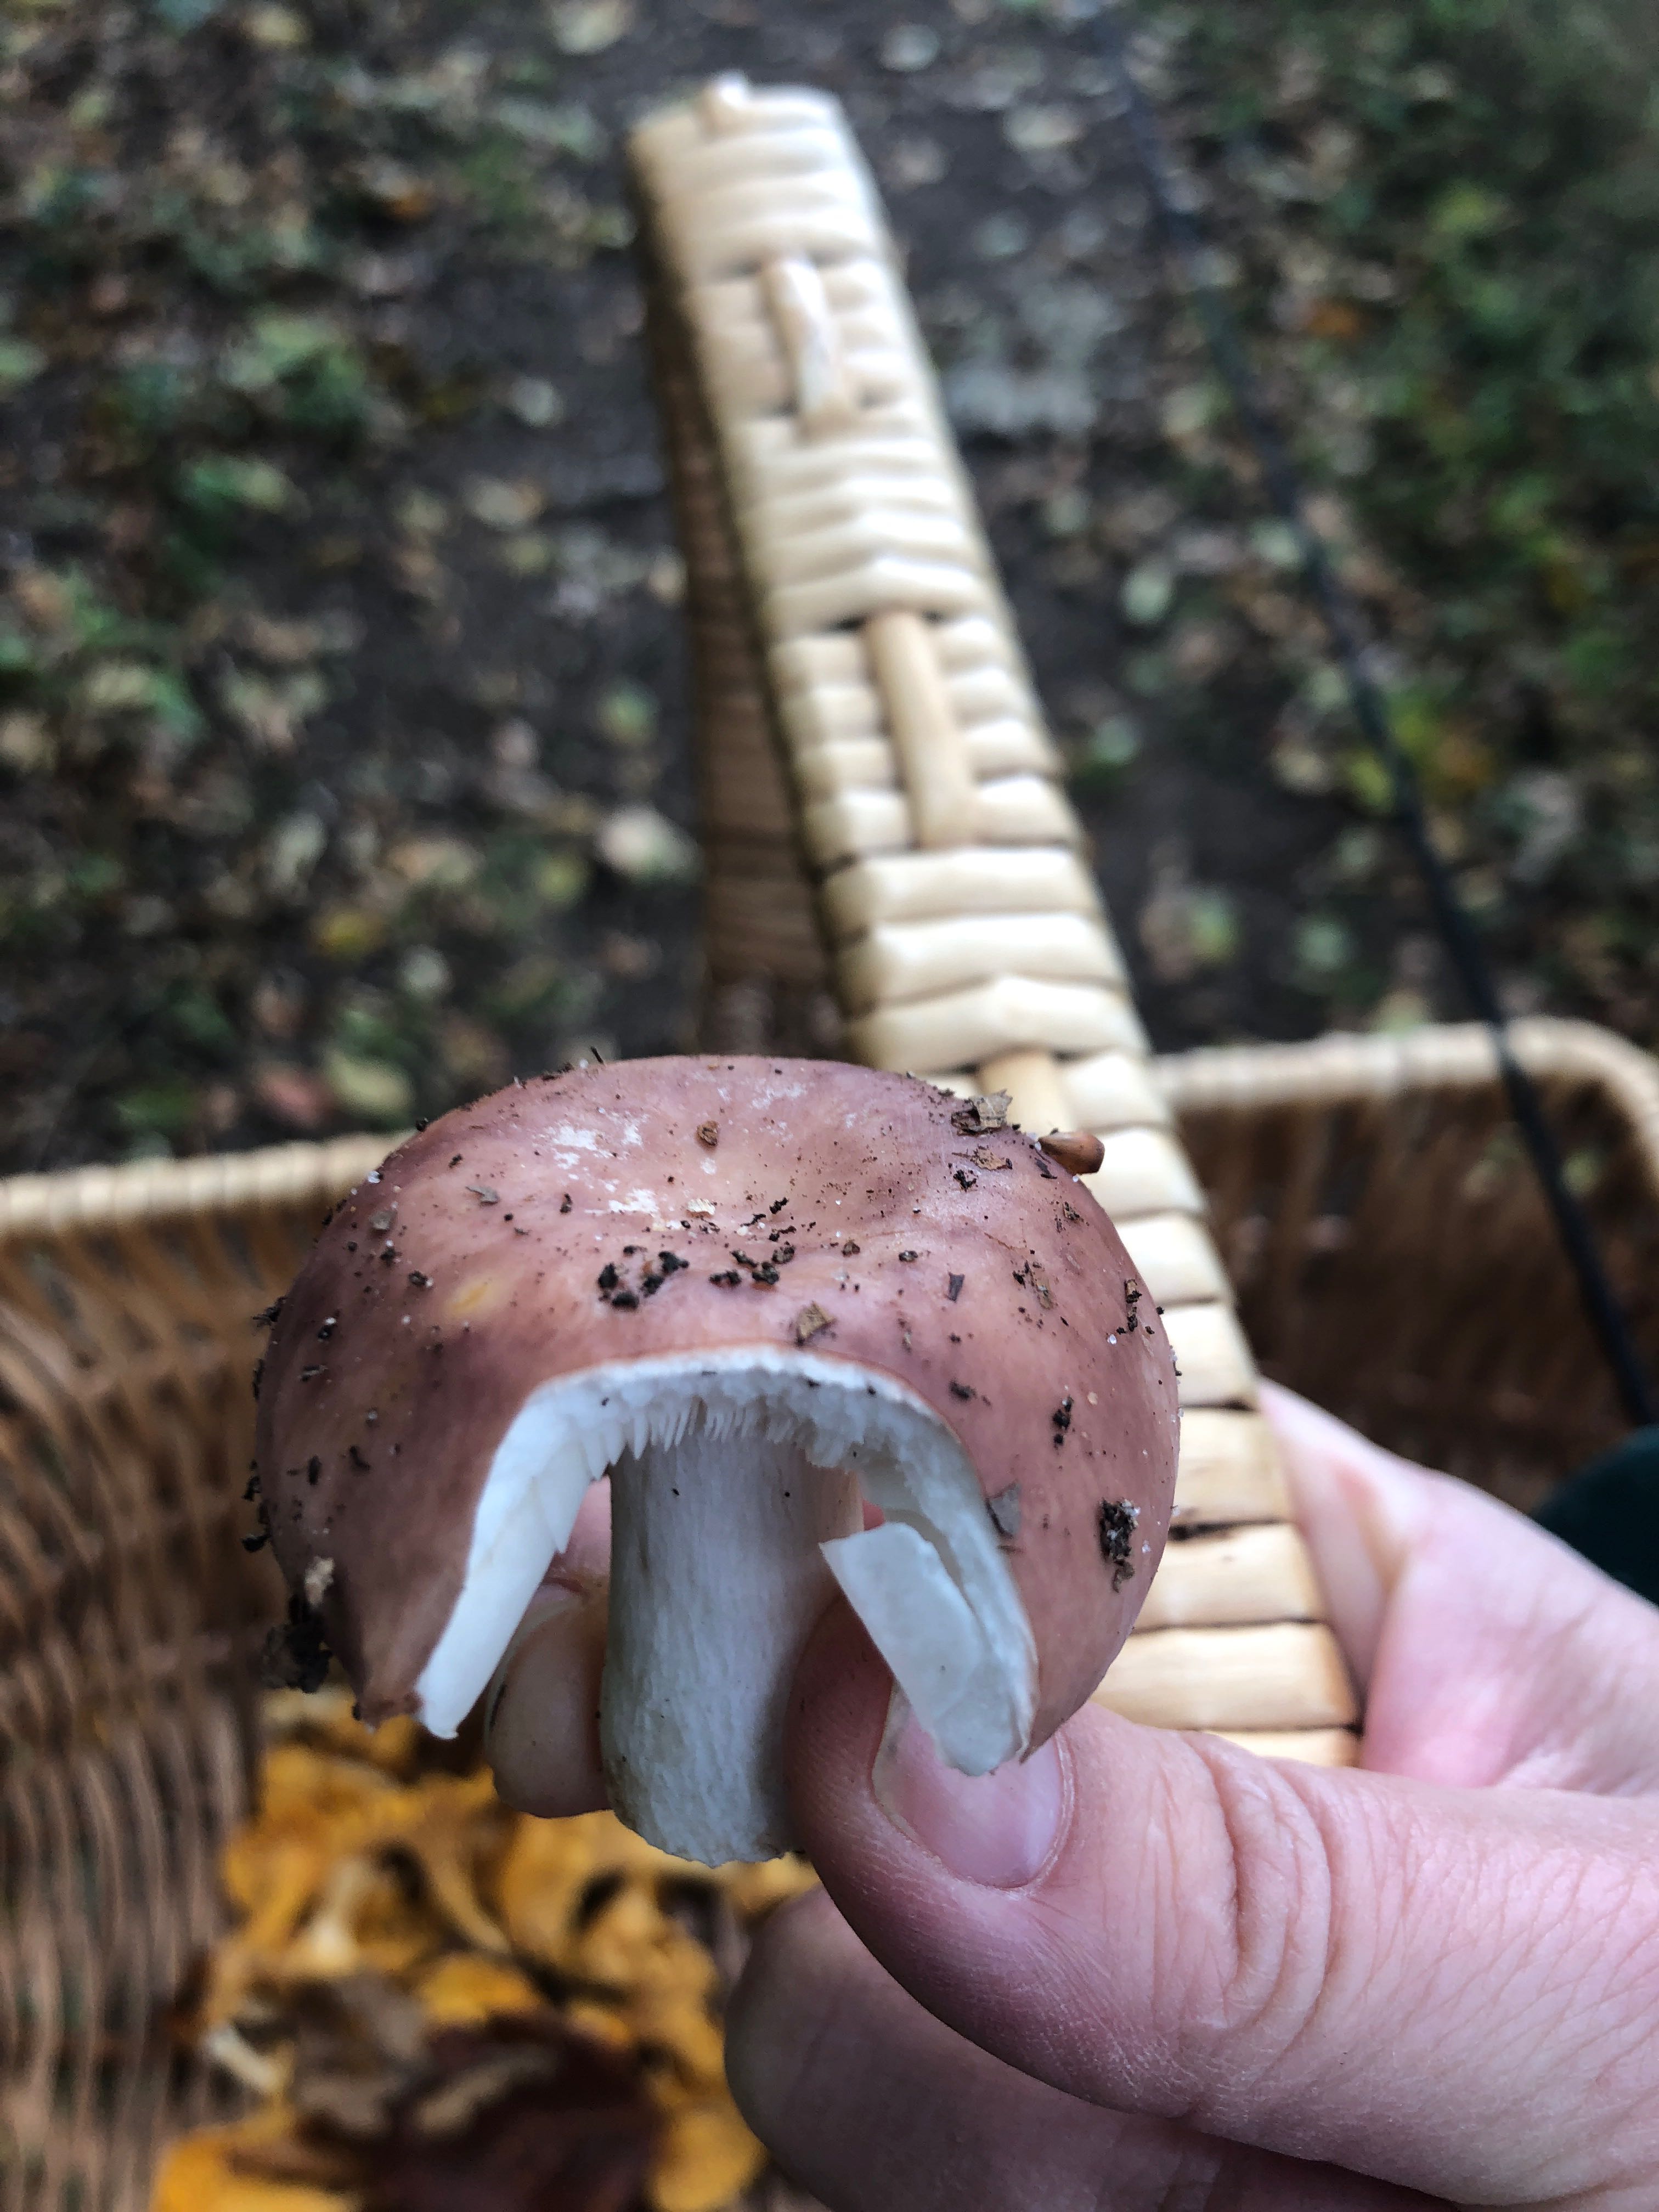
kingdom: Fungi
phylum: Basidiomycota
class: Agaricomycetes
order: Russulales
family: Russulaceae
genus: Russula
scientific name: Russula vesca
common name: spiselig skørhat
